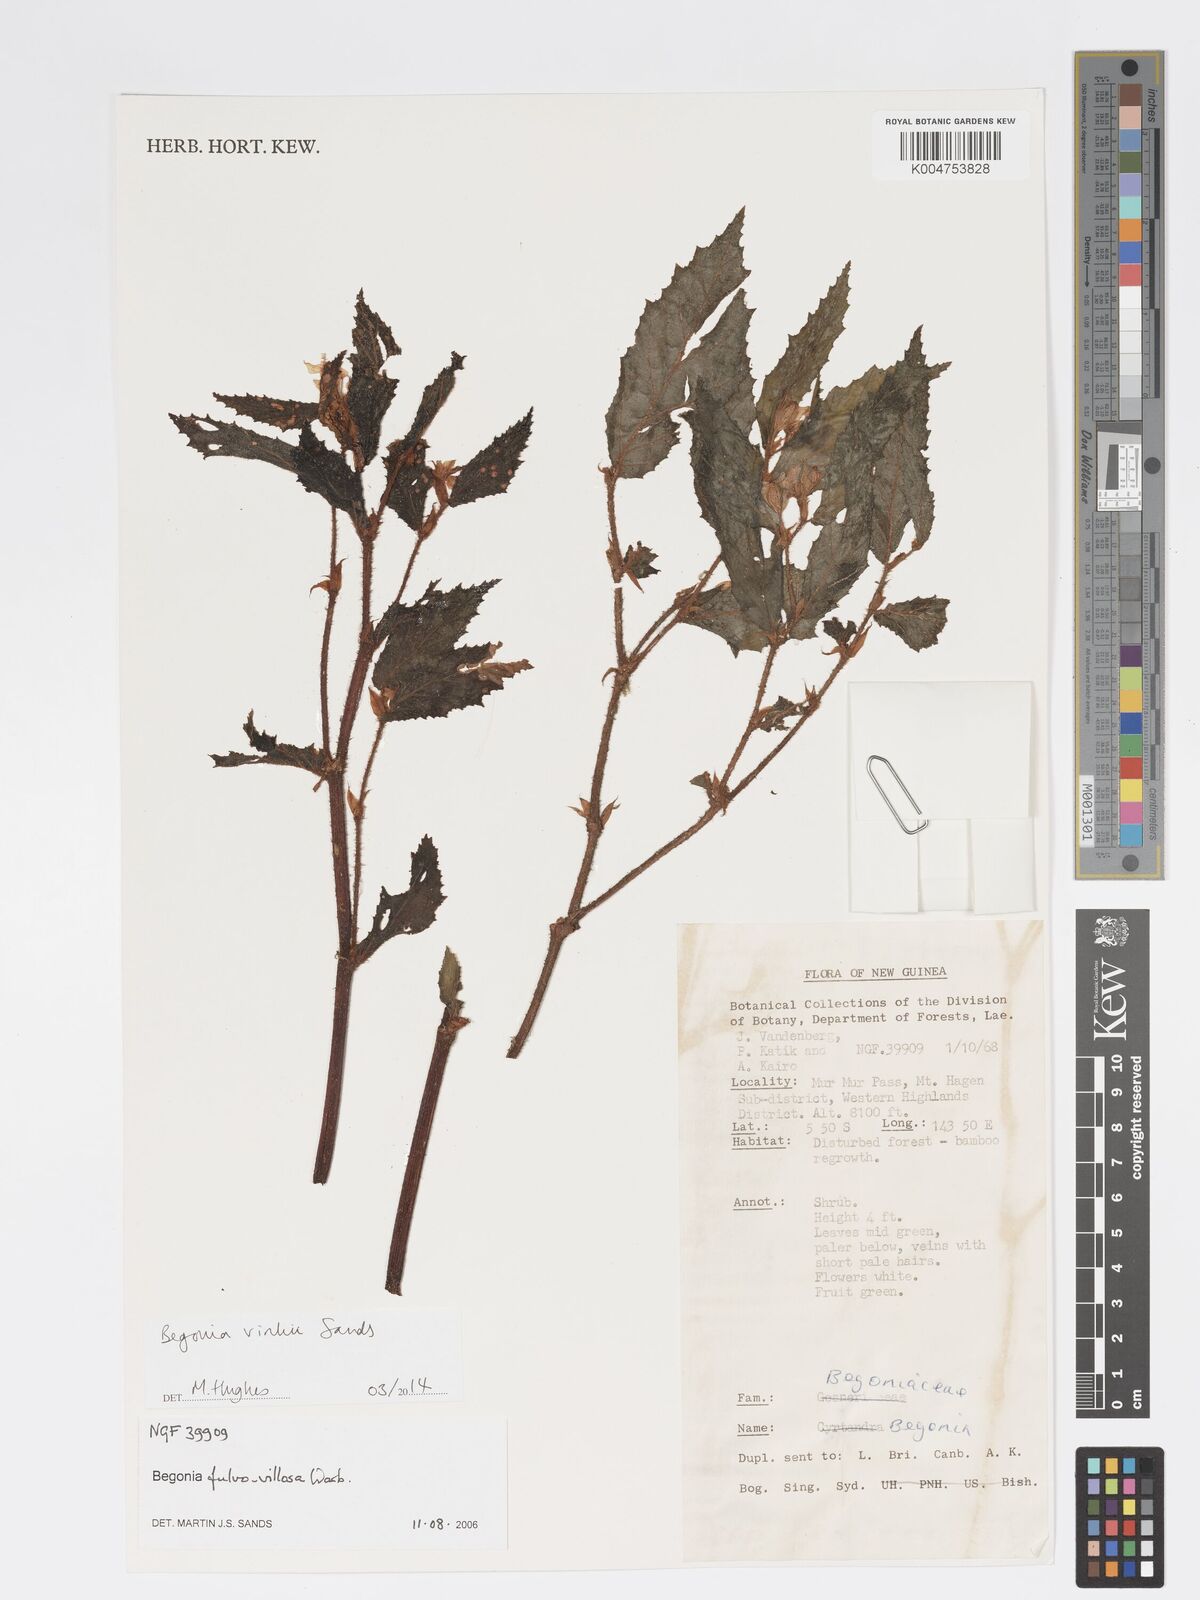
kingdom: Plantae
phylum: Tracheophyta
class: Magnoliopsida
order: Cucurbitales
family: Begoniaceae
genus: Begonia
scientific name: Begonia vinkii
